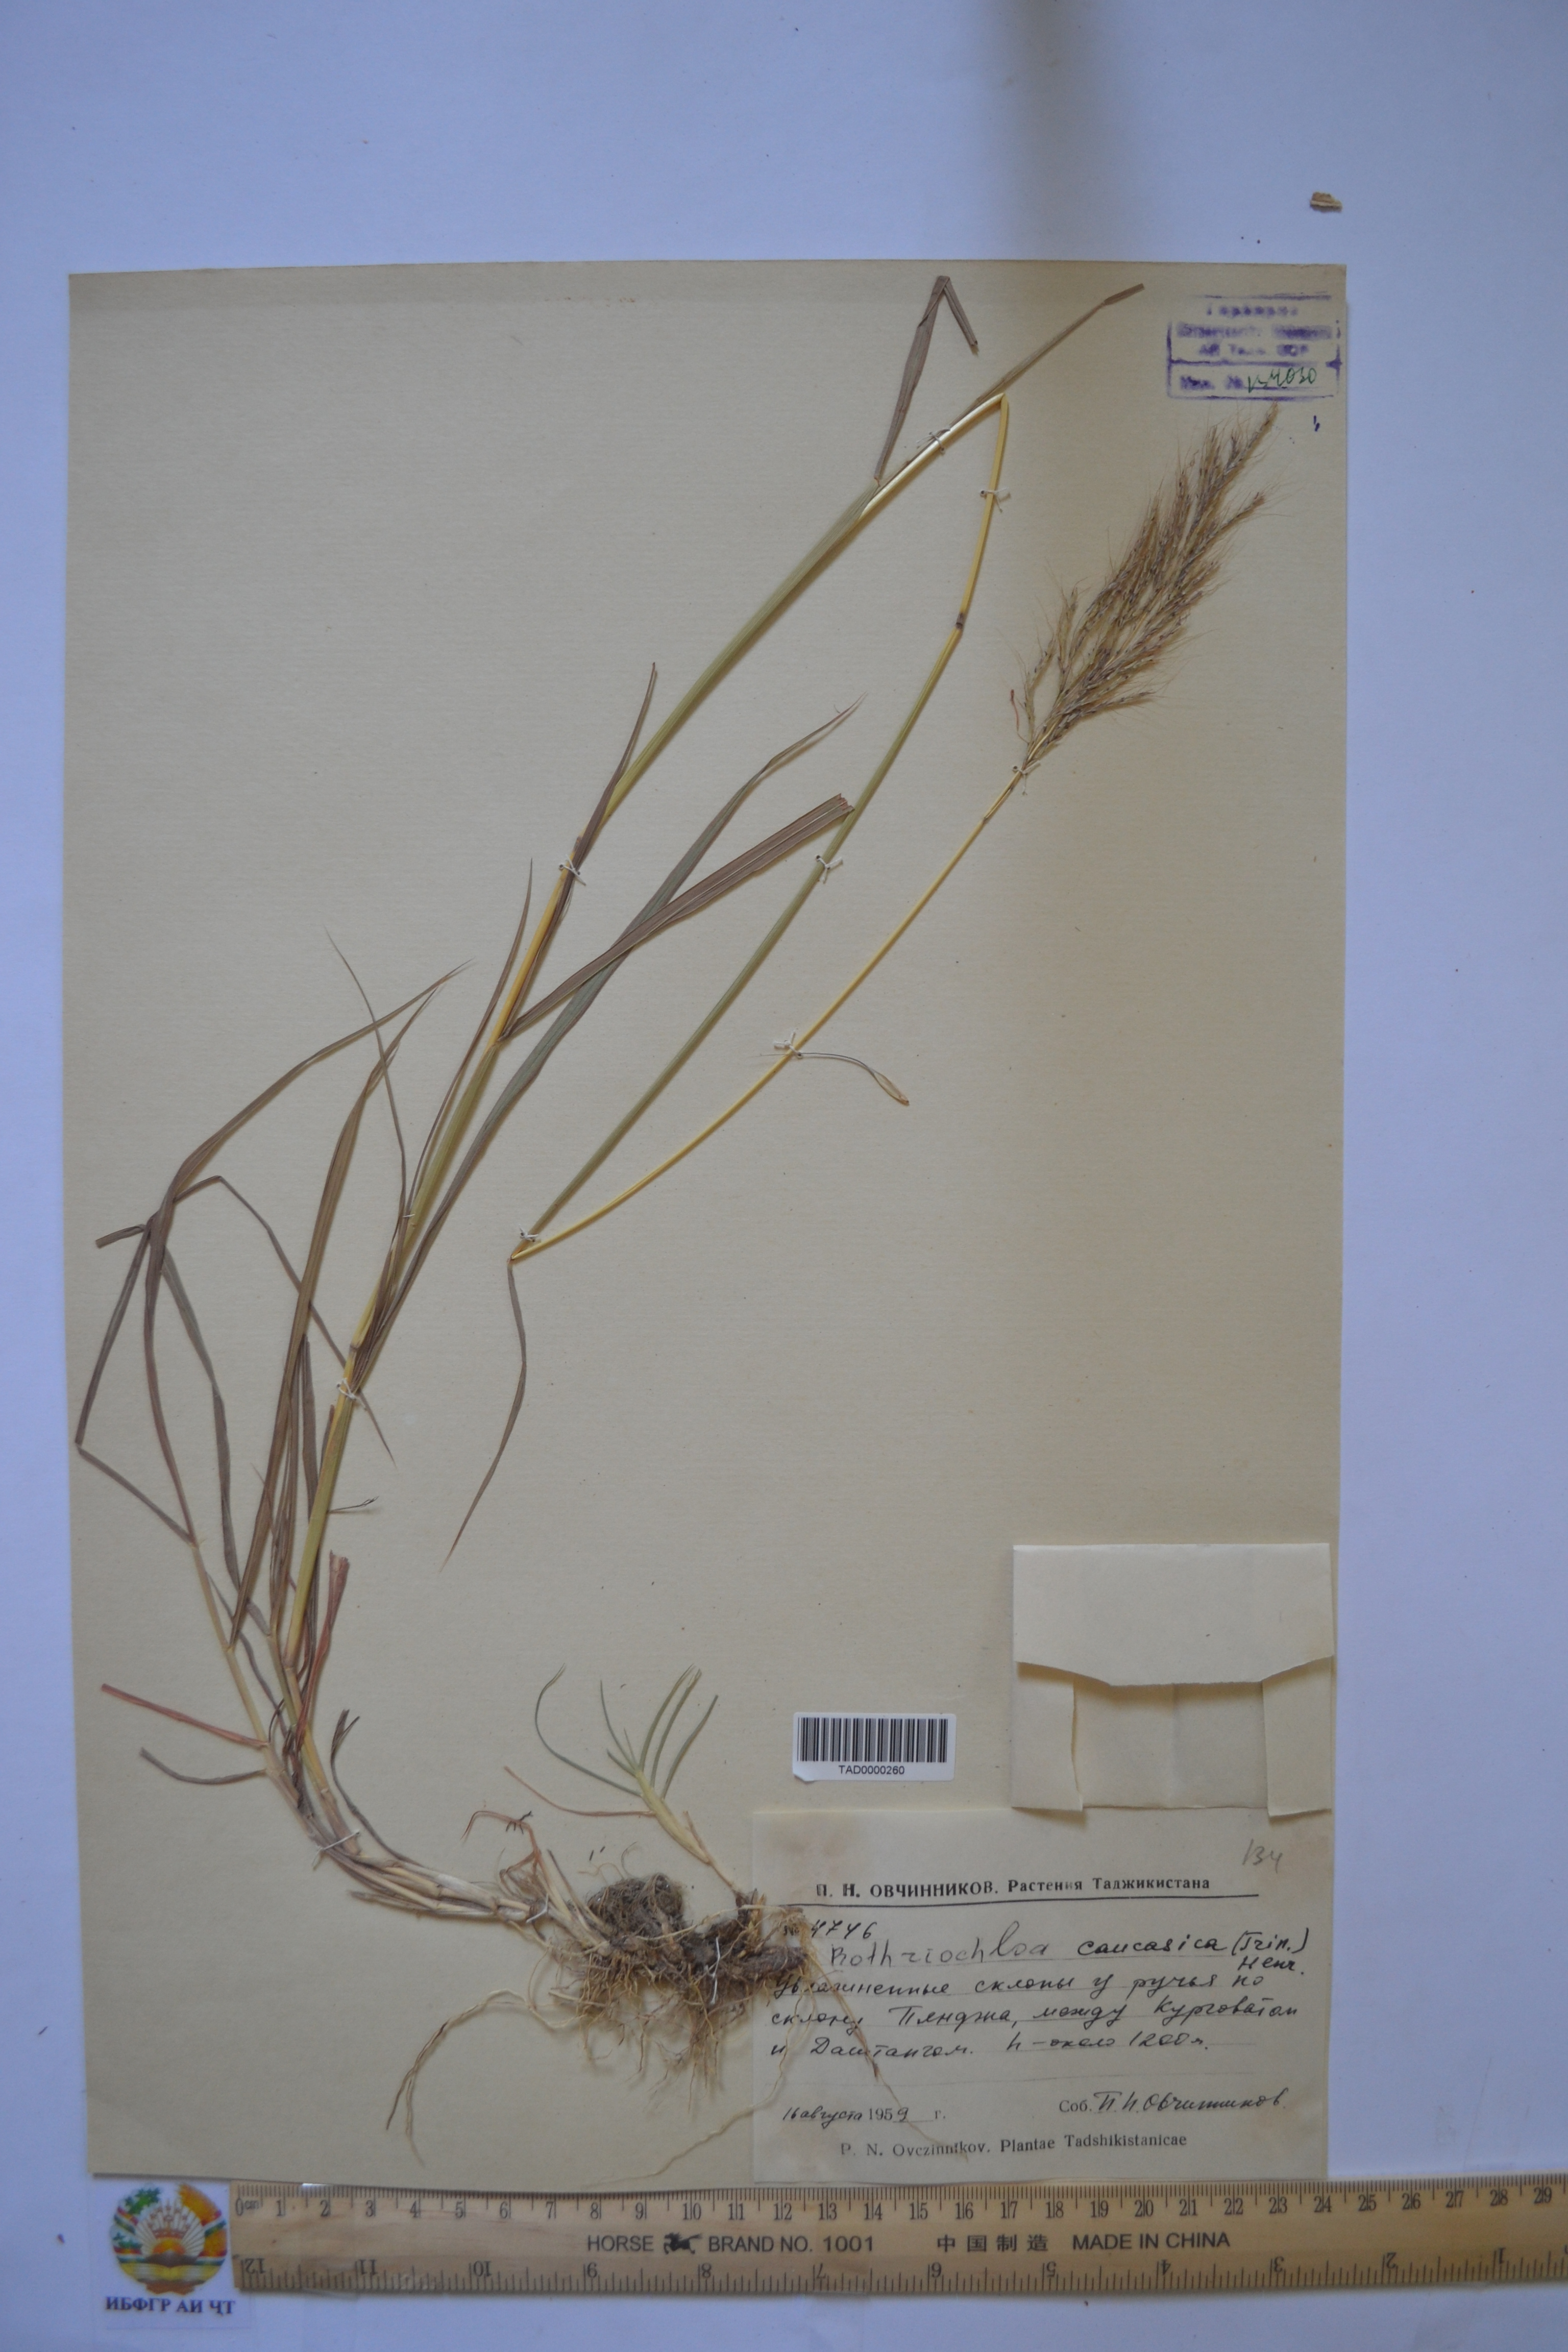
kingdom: Plantae
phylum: Tracheophyta
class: Liliopsida
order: Poales
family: Poaceae
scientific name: Poaceae
